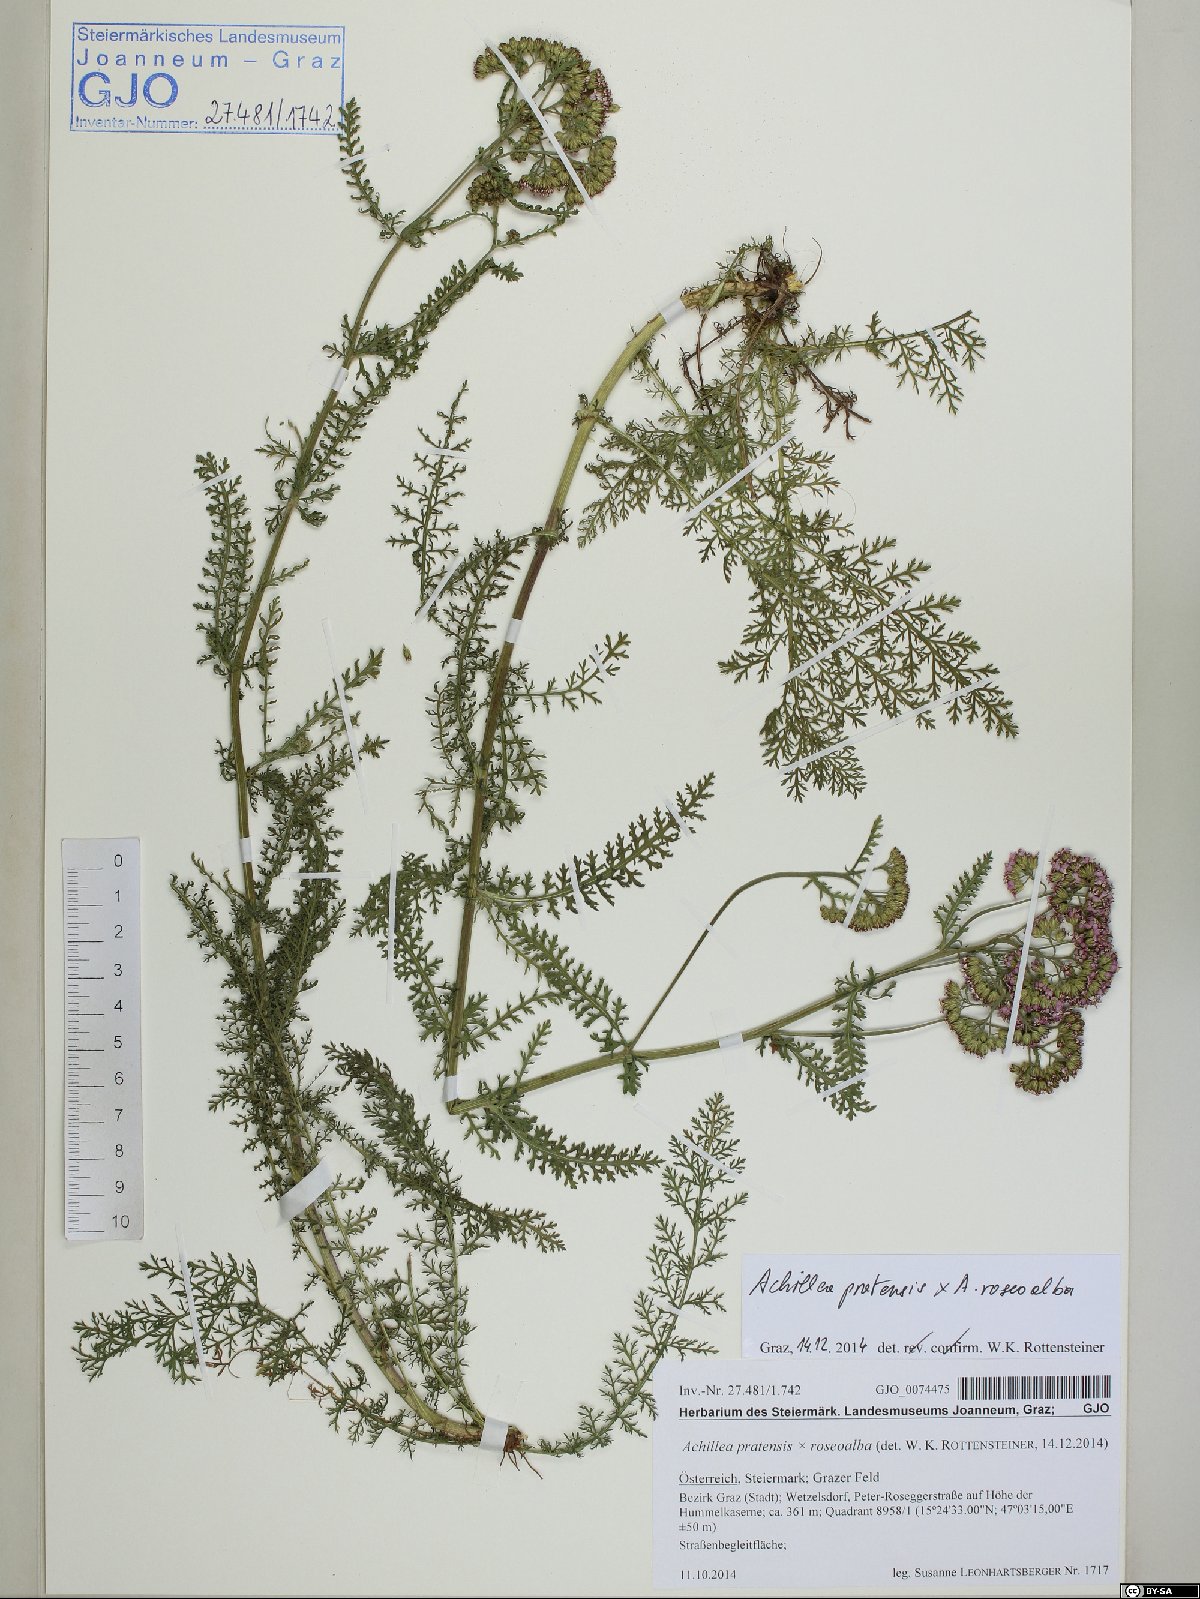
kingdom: Plantae
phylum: Tracheophyta
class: Magnoliopsida
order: Asterales
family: Asteraceae
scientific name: Asteraceae
